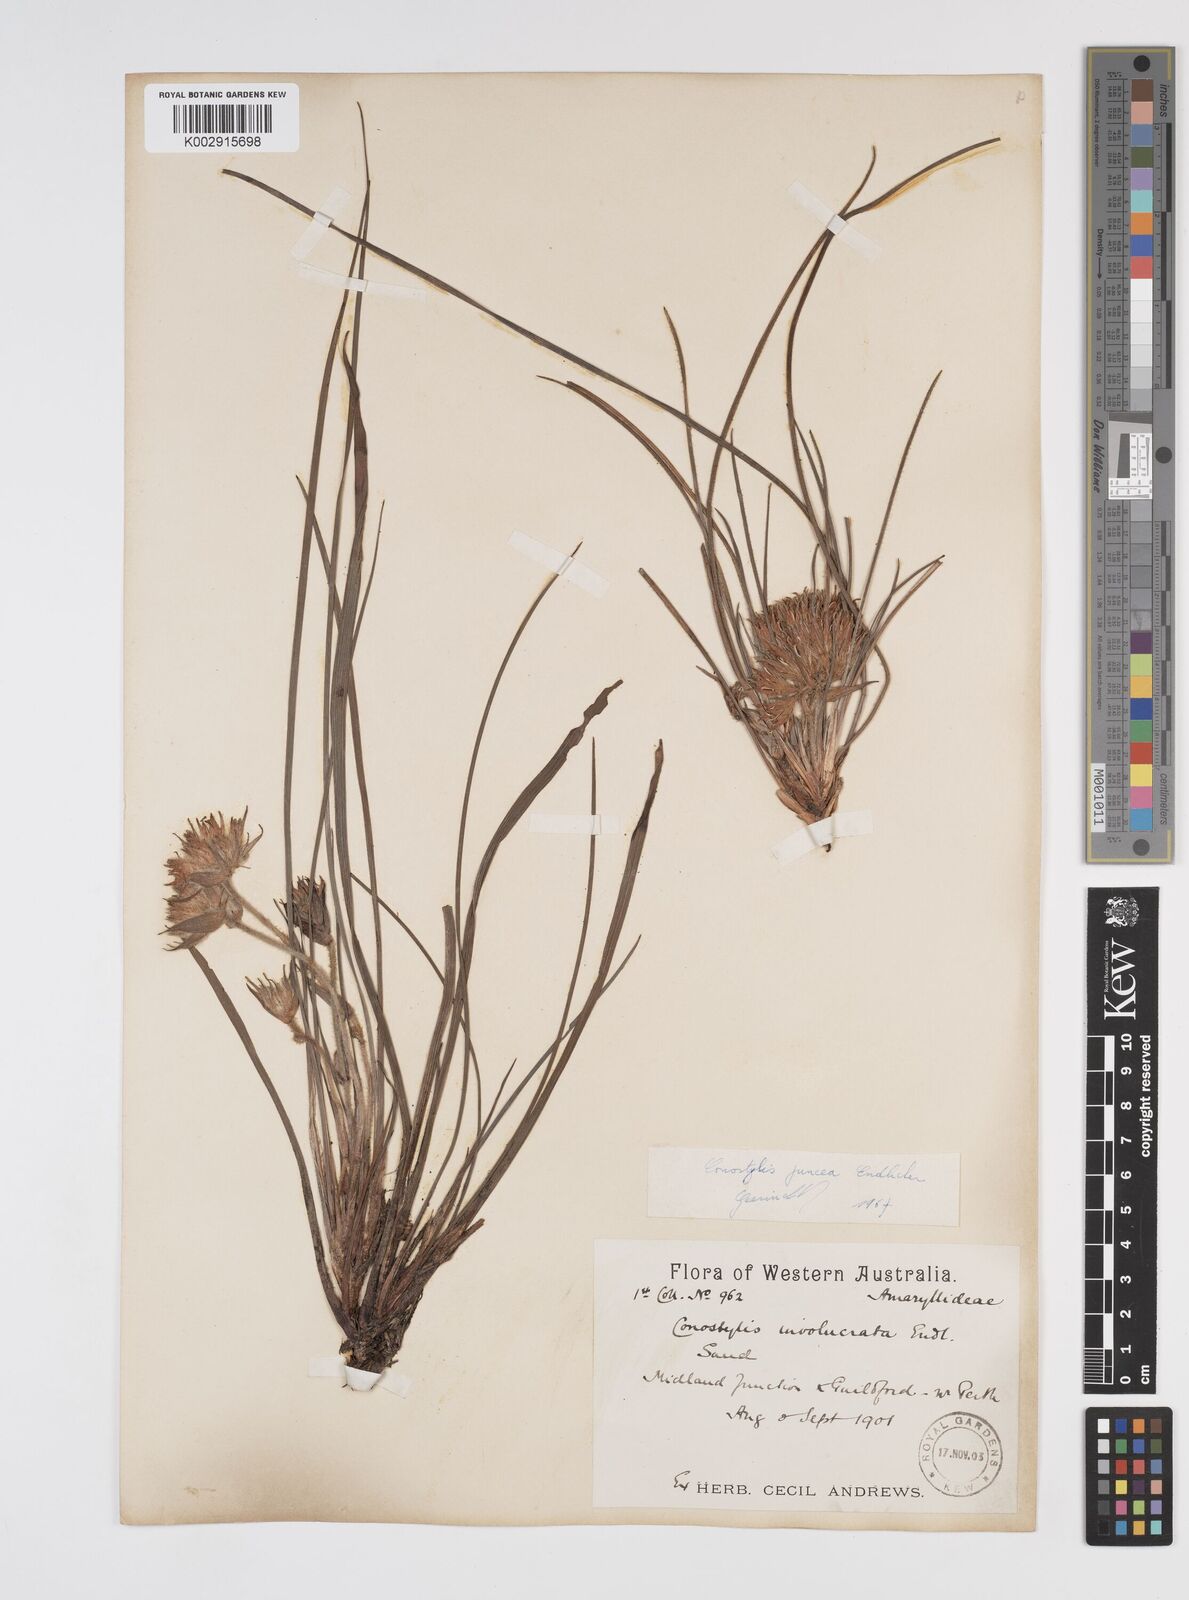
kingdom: Plantae
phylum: Tracheophyta
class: Liliopsida
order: Commelinales
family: Haemodoraceae
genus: Conostylis
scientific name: Conostylis juncea
